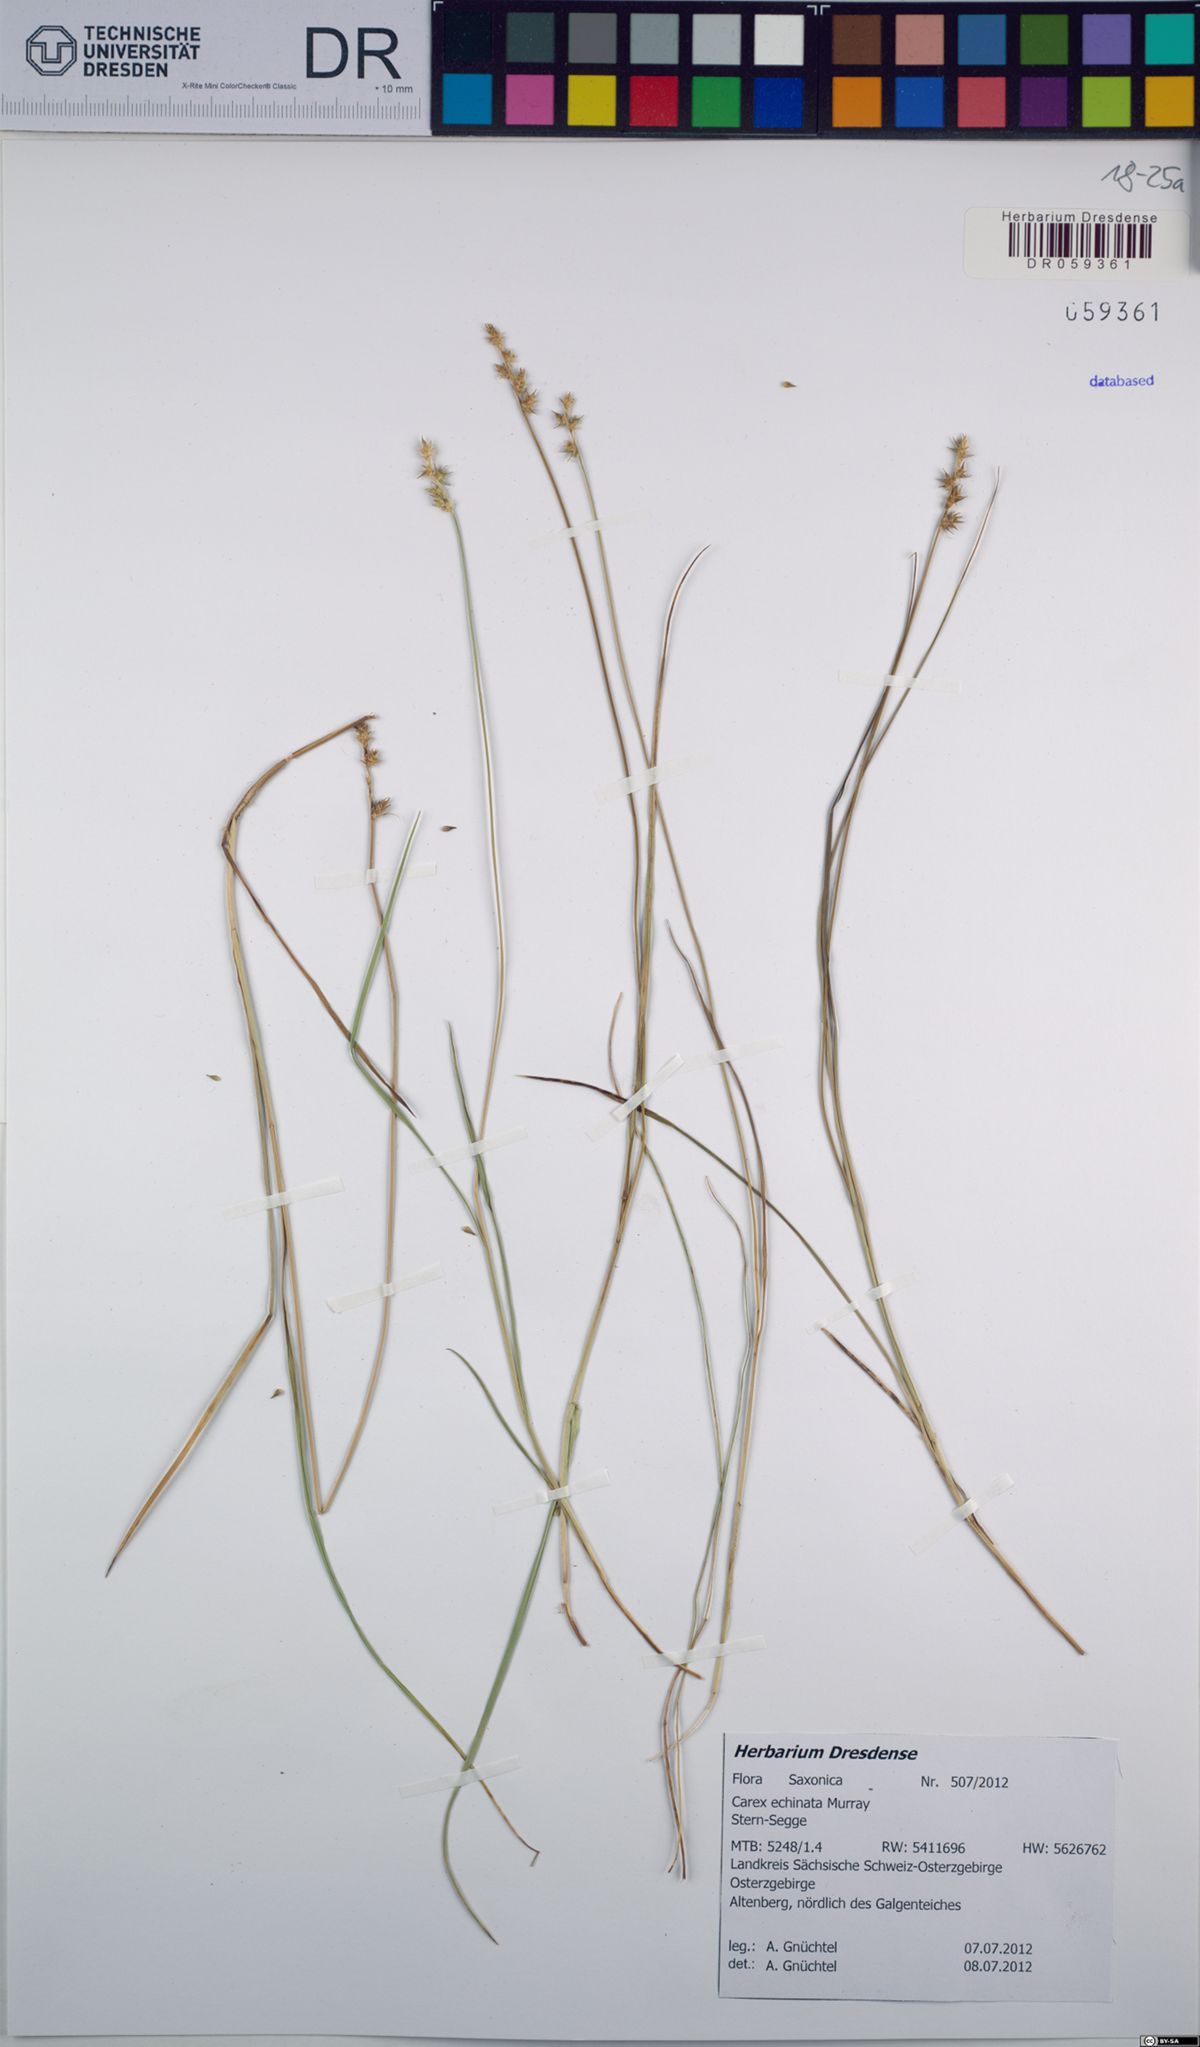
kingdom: Plantae
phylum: Tracheophyta
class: Liliopsida
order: Poales
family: Cyperaceae
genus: Carex
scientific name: Carex echinata
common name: Star sedge
